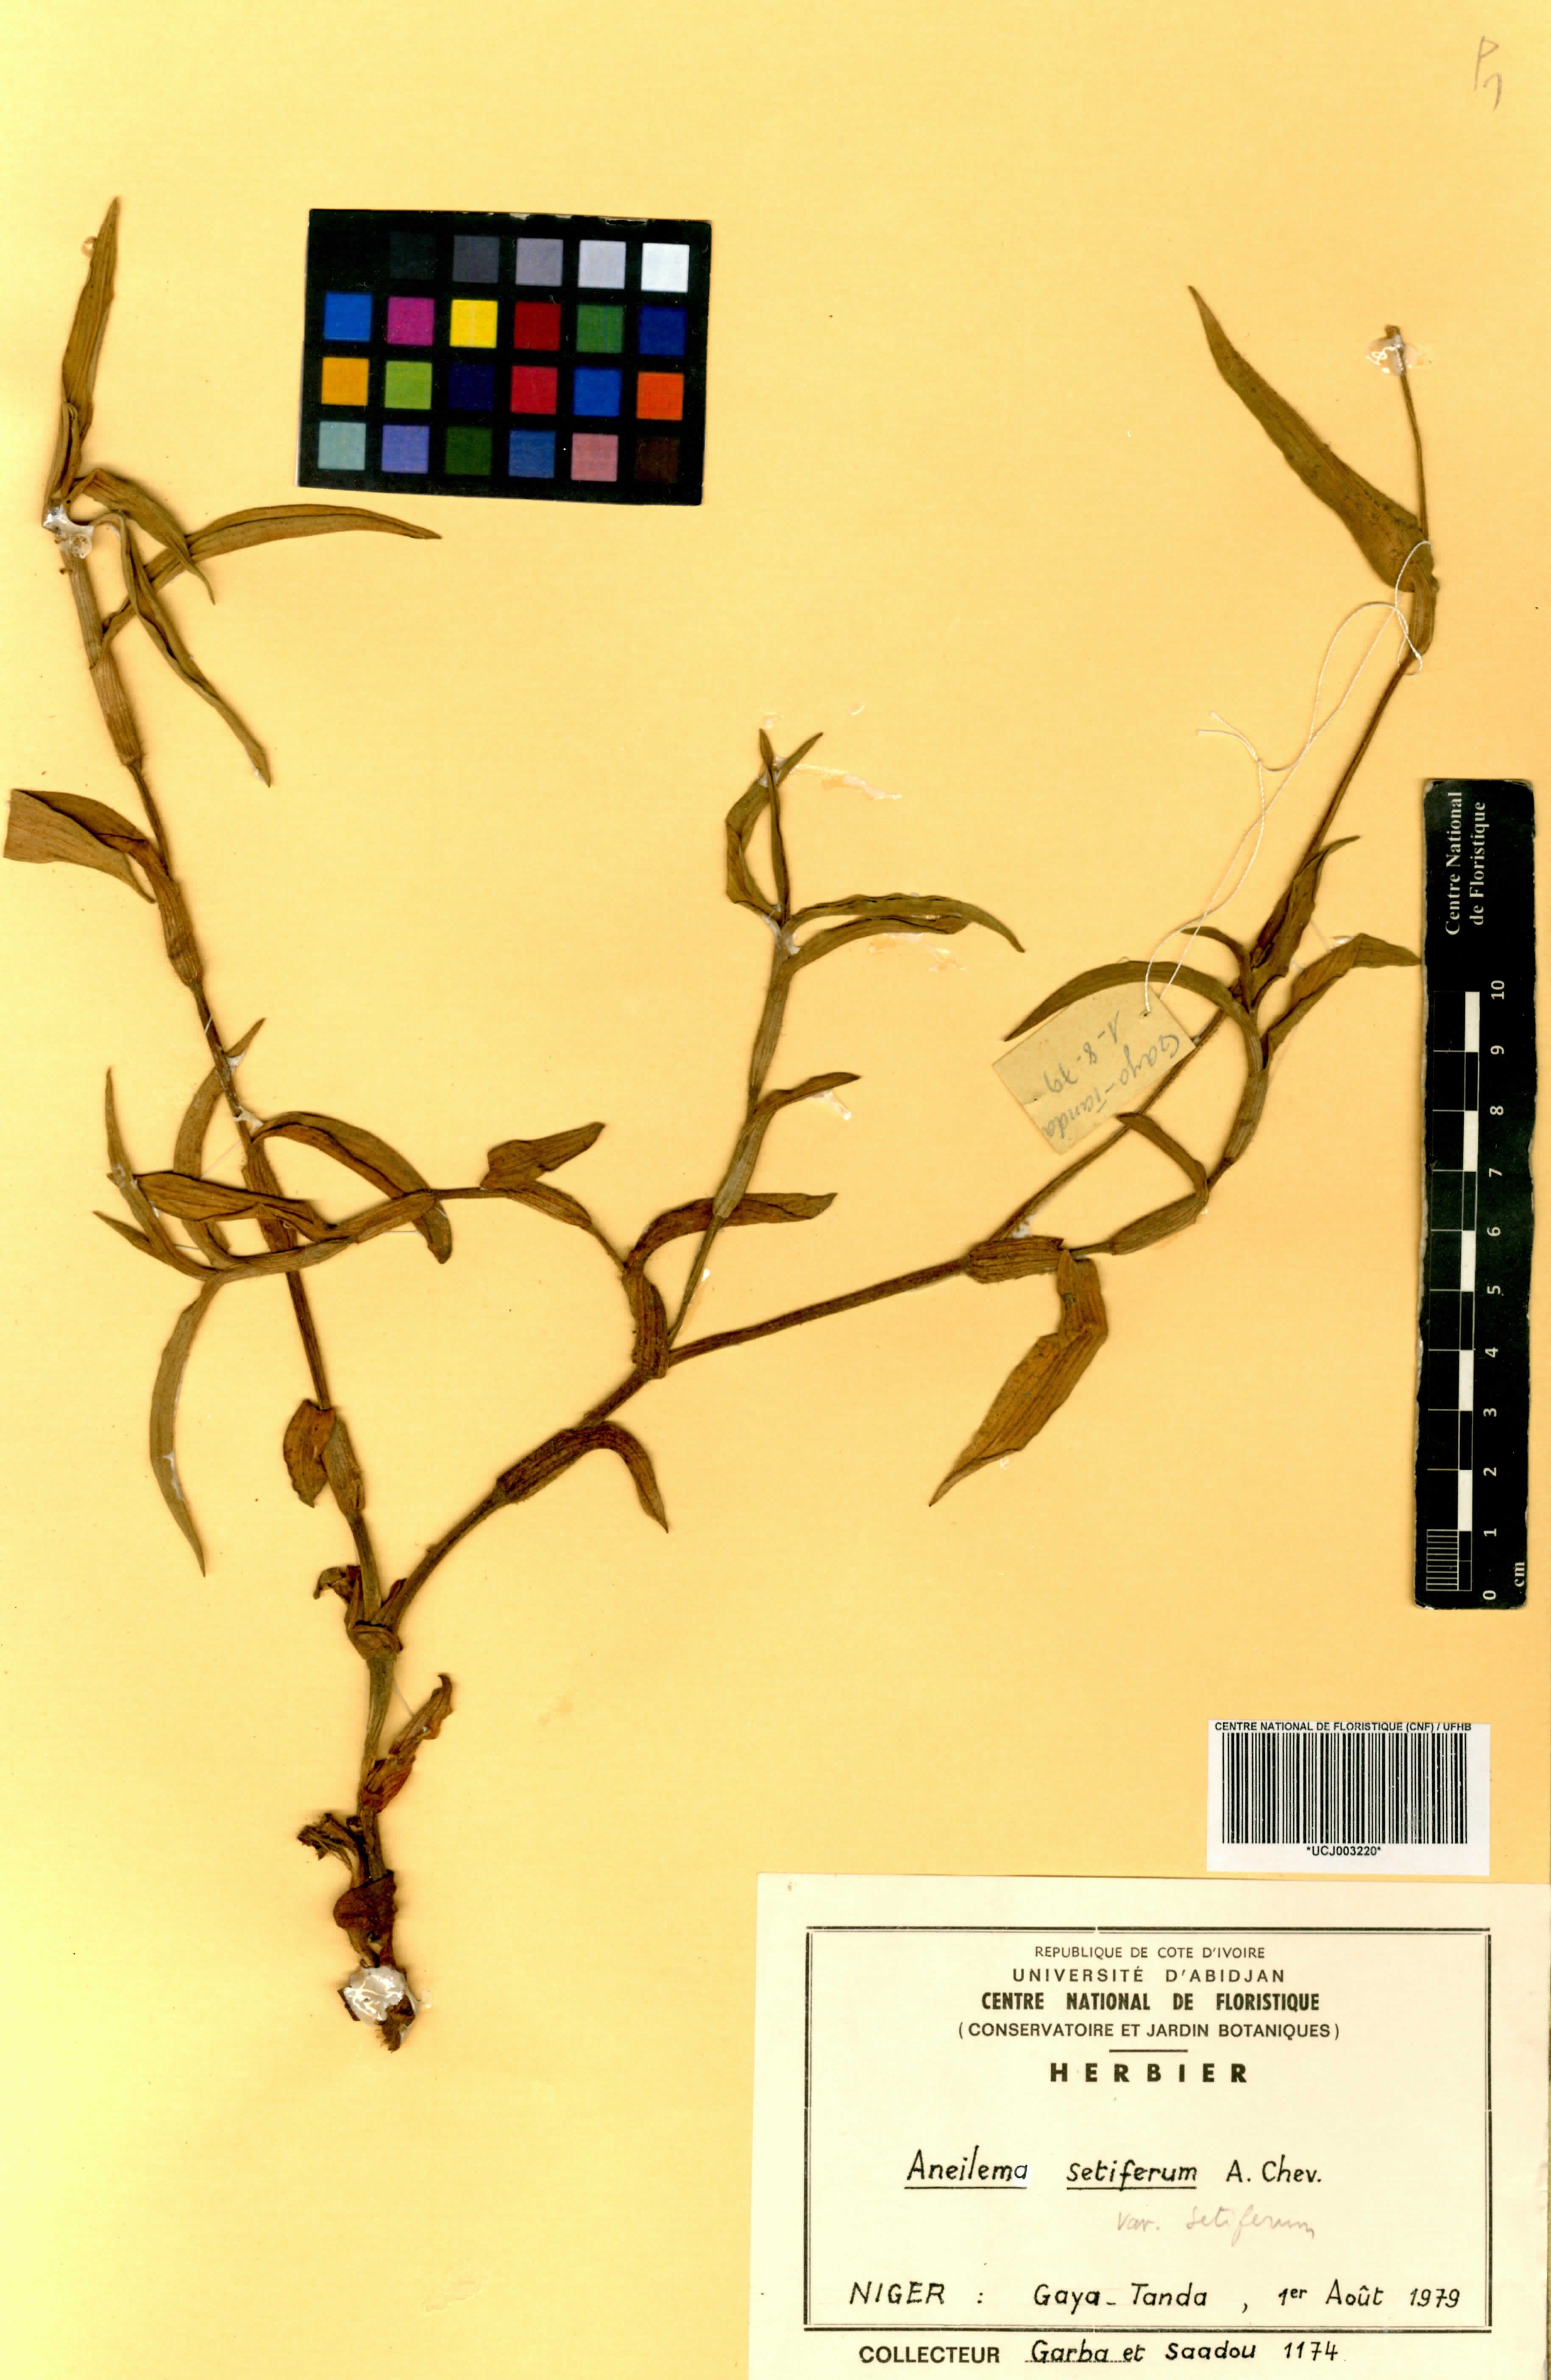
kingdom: Plantae
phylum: Tracheophyta
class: Liliopsida
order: Commelinales
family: Commelinaceae
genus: Aneilema
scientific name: Aneilema setiferum
